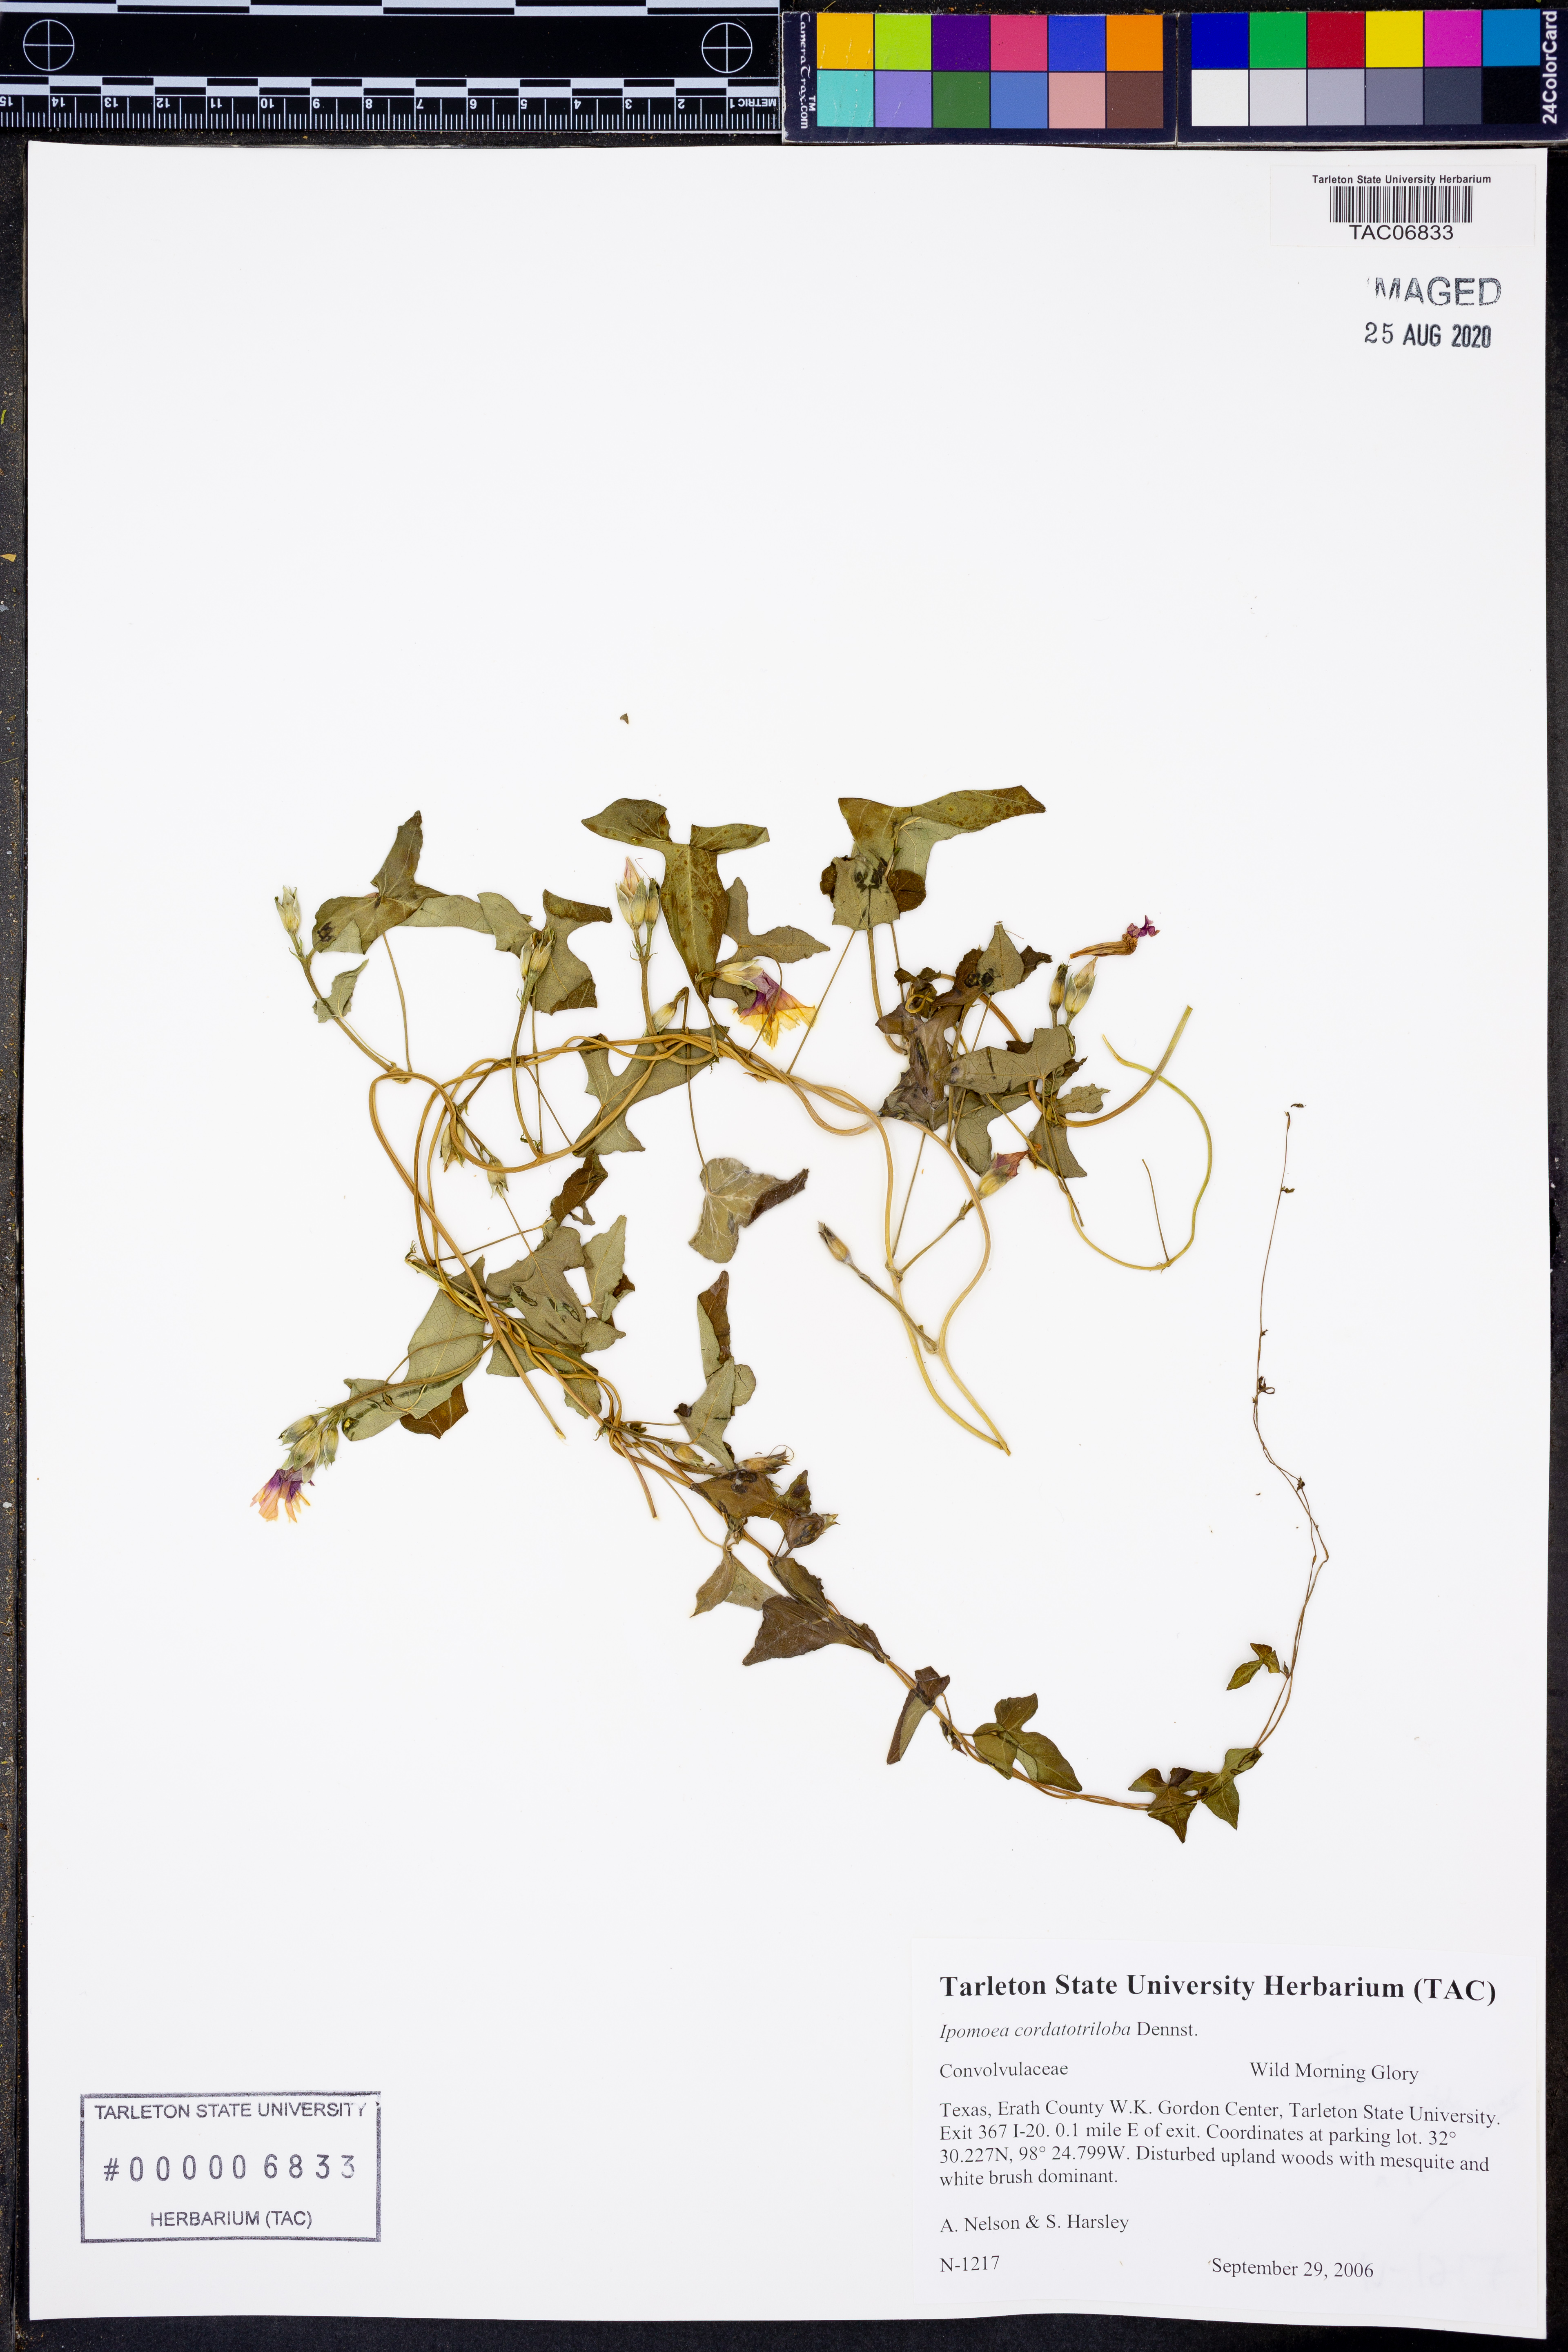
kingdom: Plantae
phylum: Tracheophyta
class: Magnoliopsida
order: Solanales
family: Convolvulaceae
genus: Ipomoea
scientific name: Ipomoea cordatotriloba
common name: Cotton morning glory
